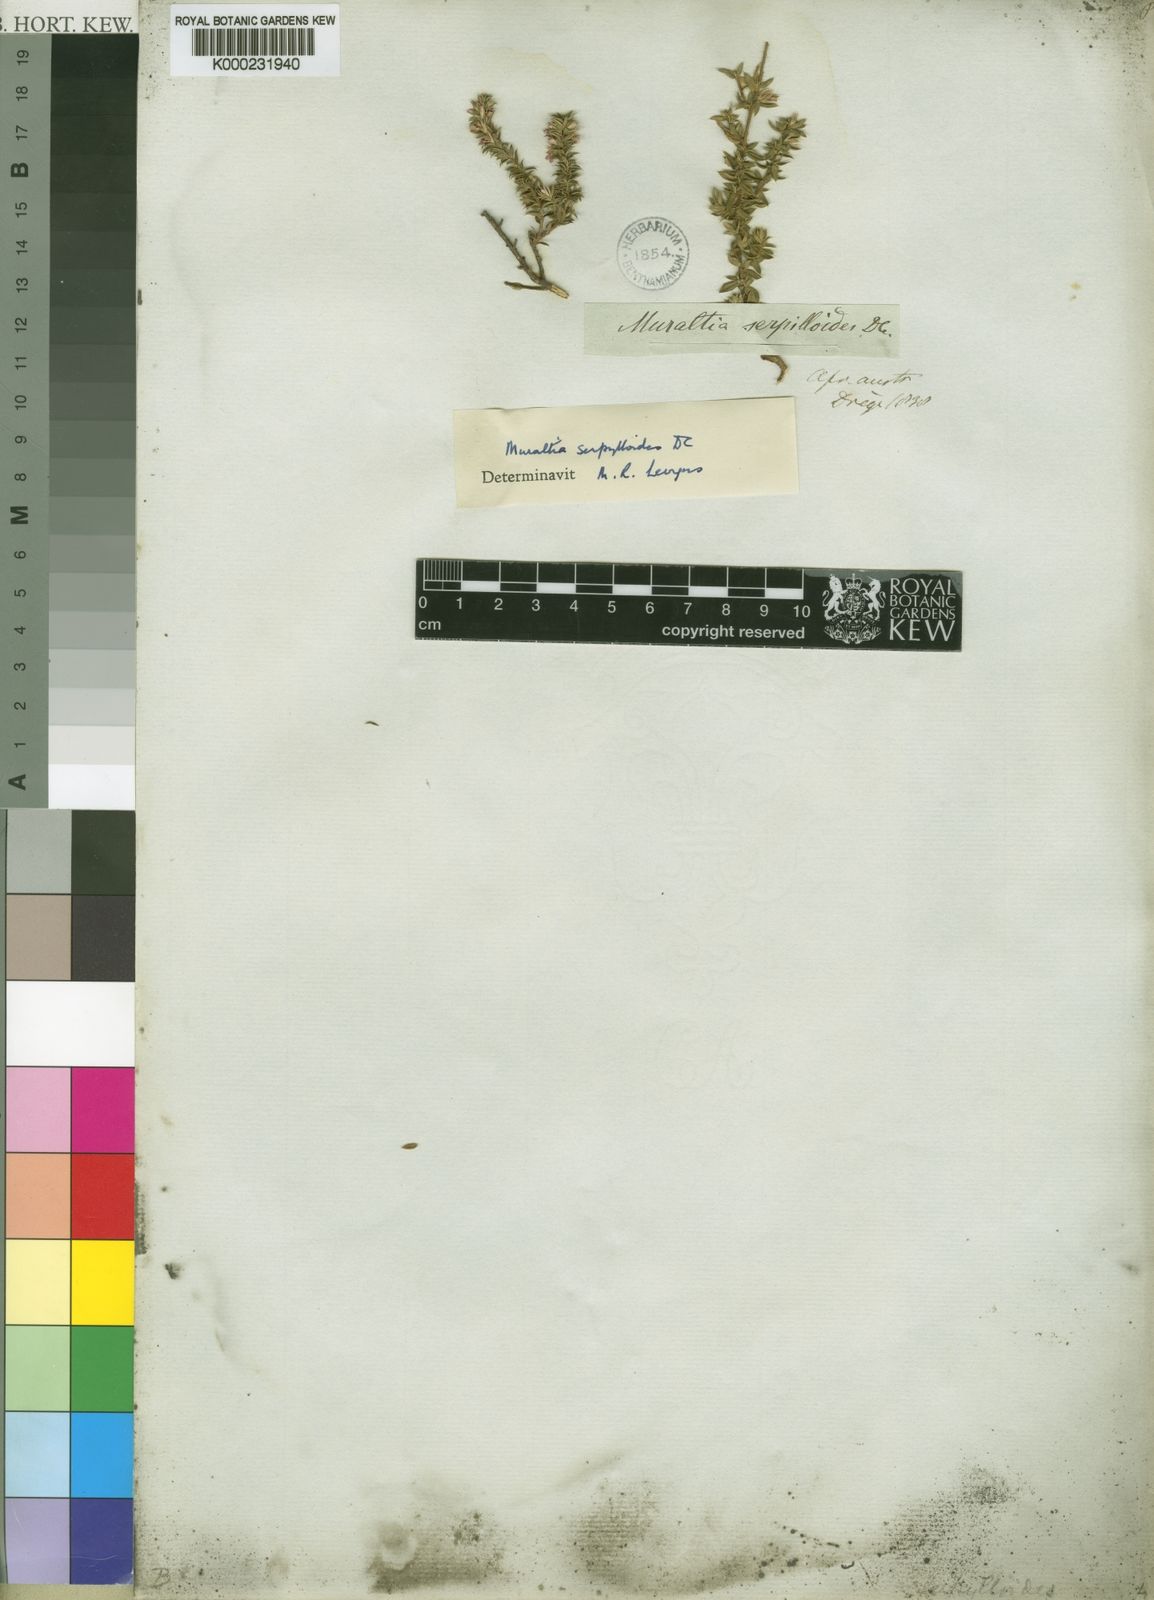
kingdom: Plantae
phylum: Tracheophyta
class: Magnoliopsida
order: Fabales
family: Polygalaceae
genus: Muraltia
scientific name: Muraltia serpylloides
